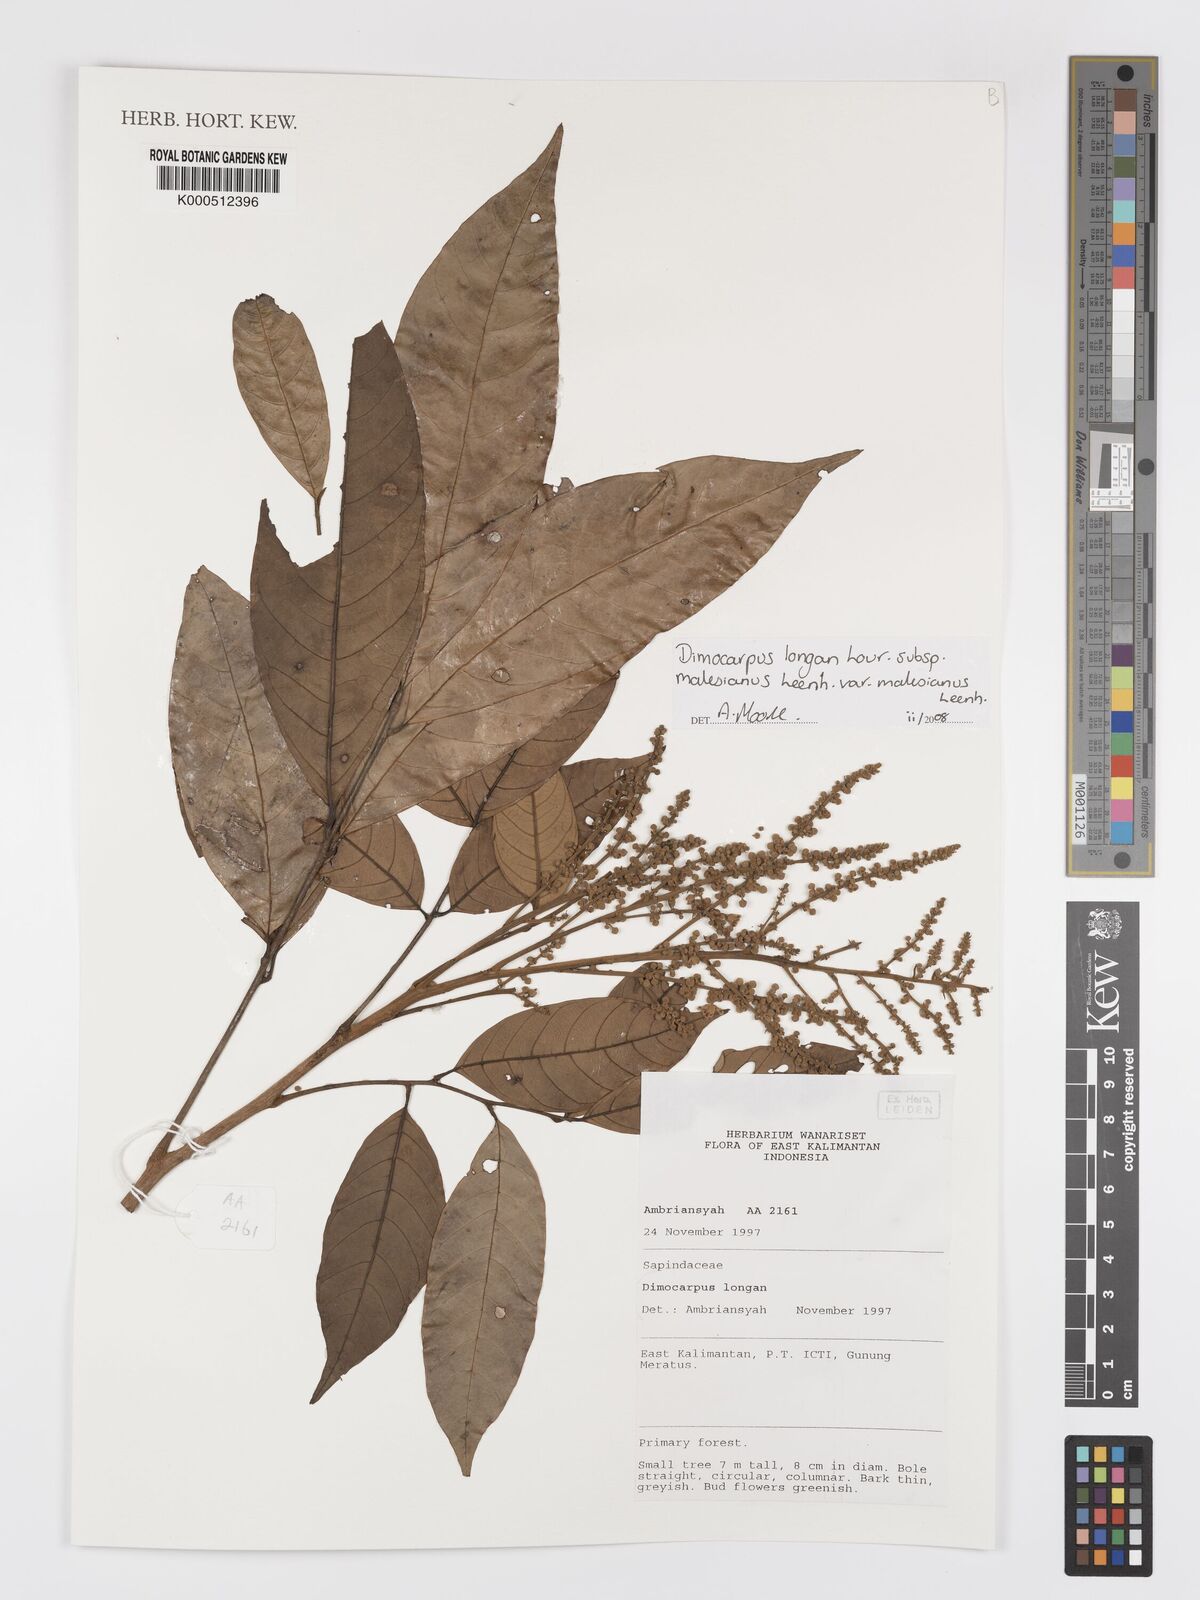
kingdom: Plantae
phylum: Tracheophyta
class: Magnoliopsida
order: Sapindales
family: Sapindaceae
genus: Dimocarpus
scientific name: Dimocarpus malesianus
